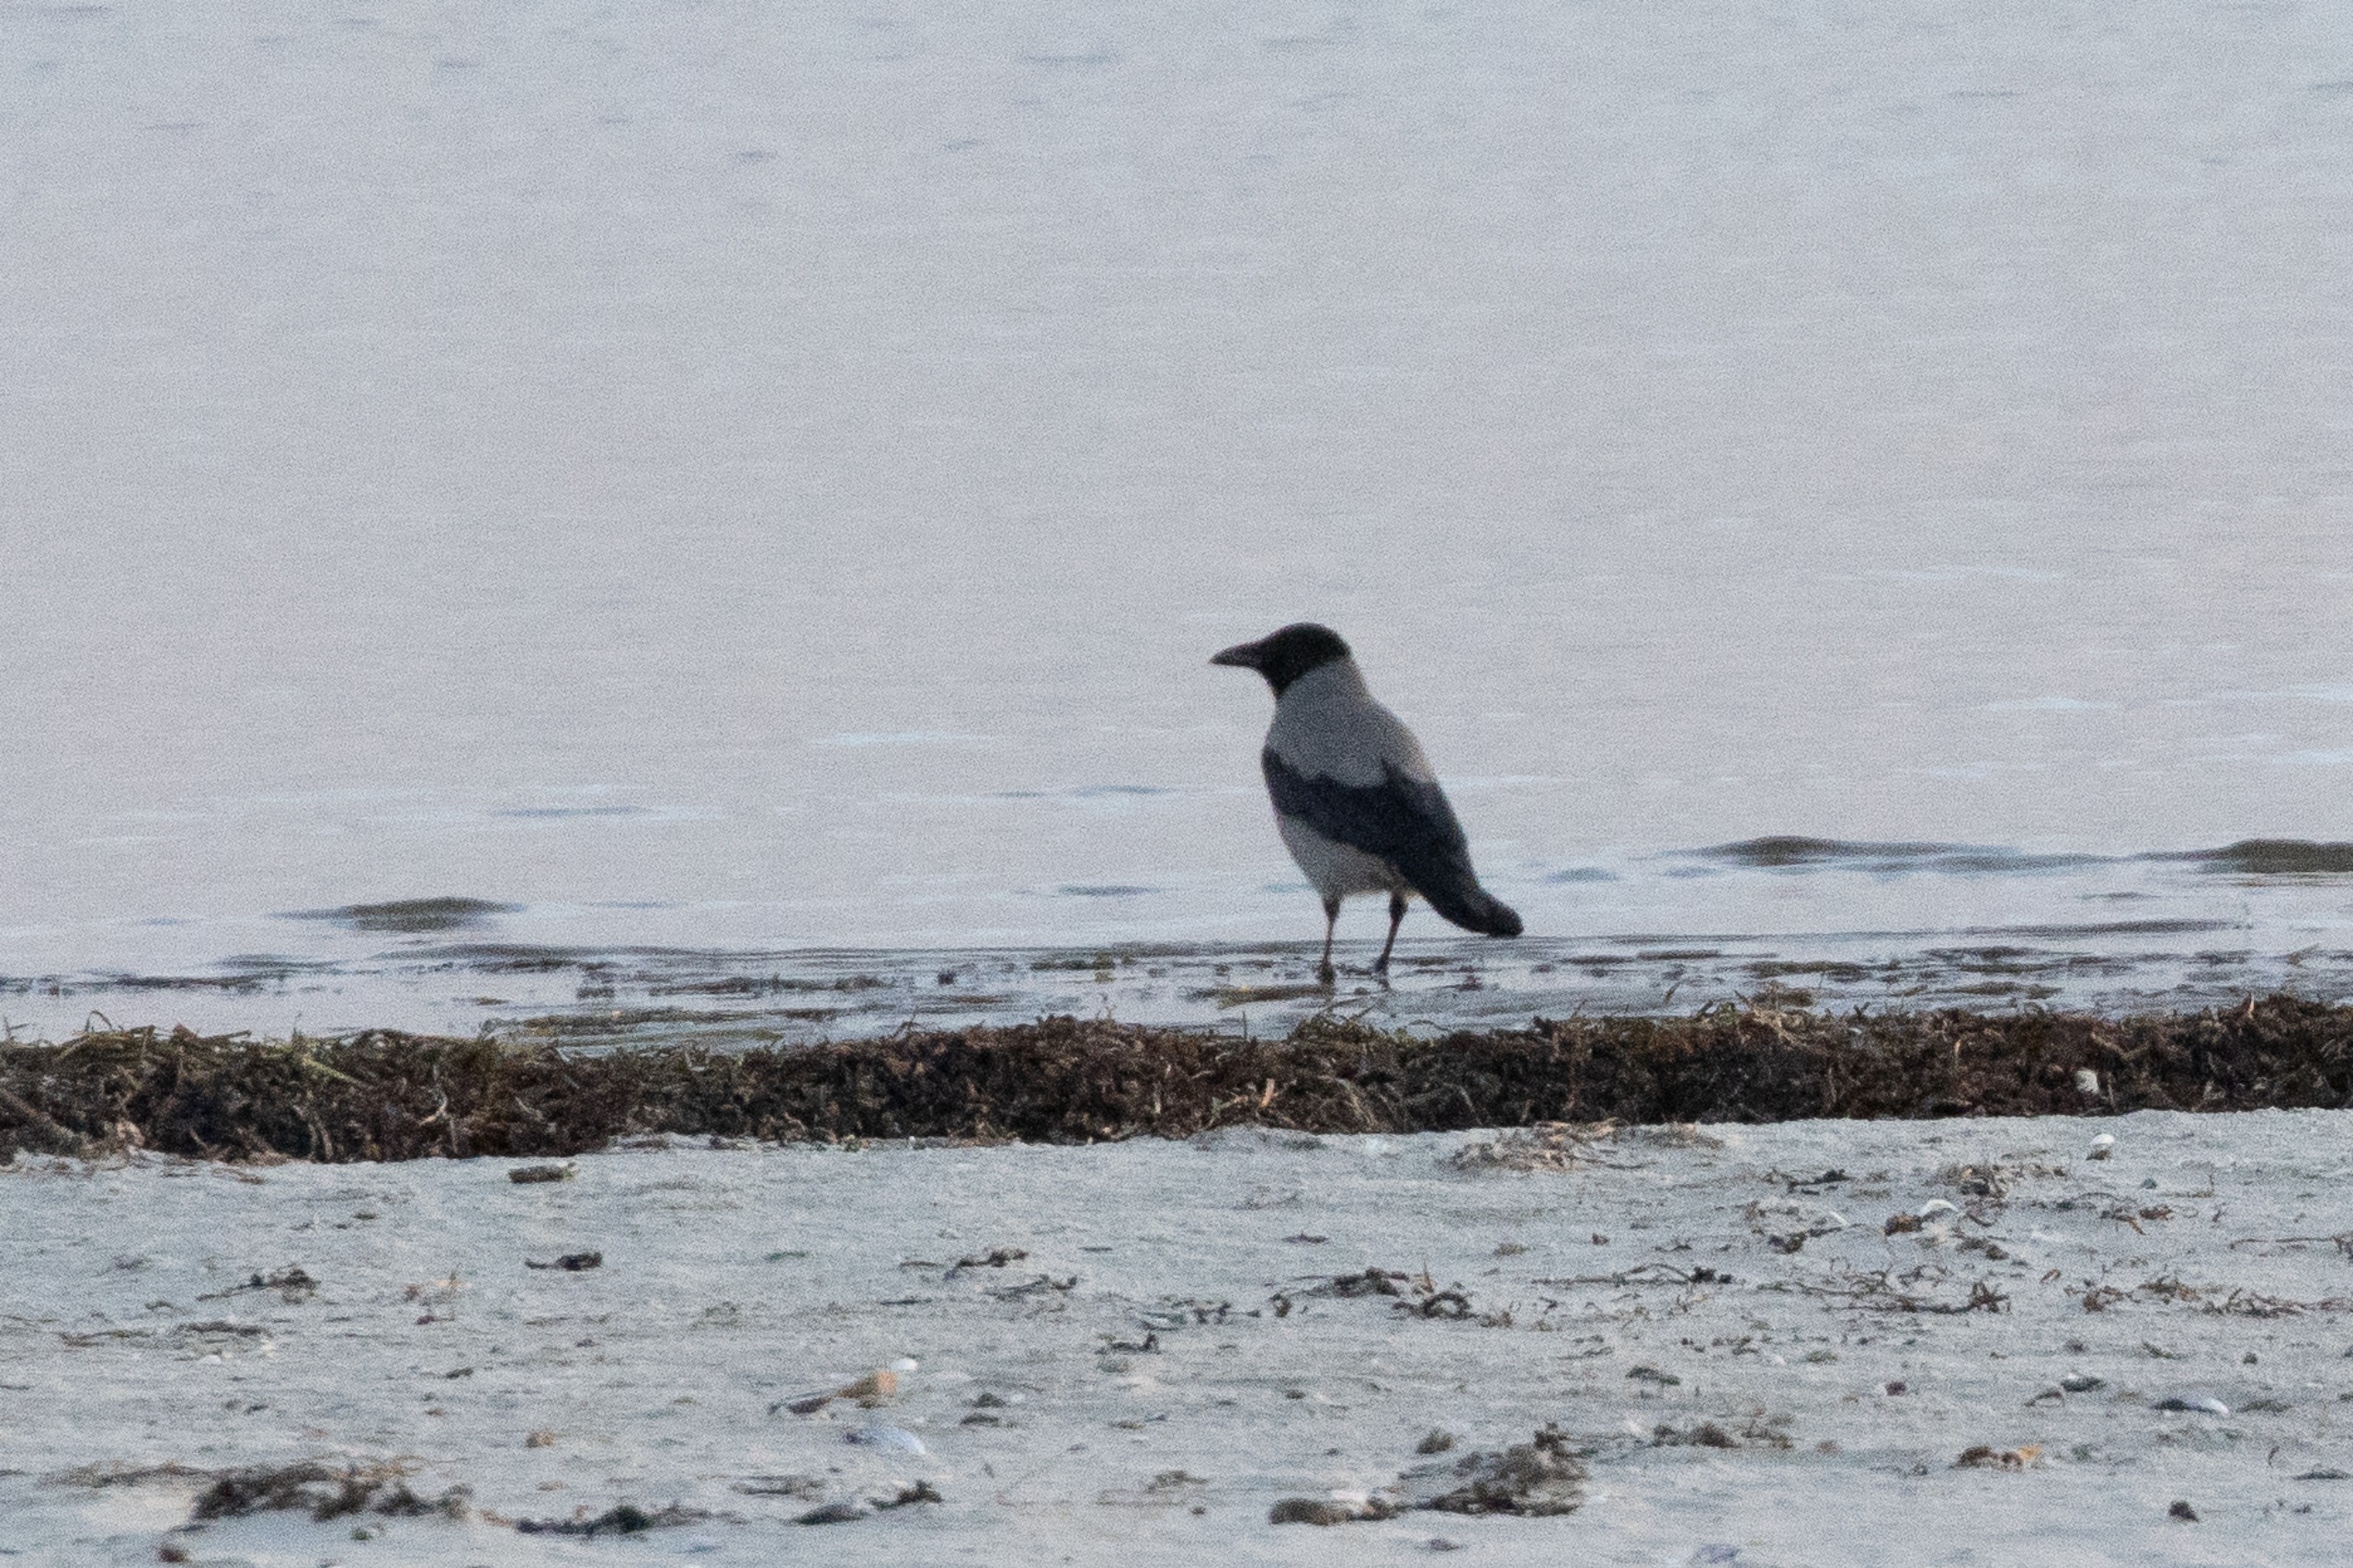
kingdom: Animalia
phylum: Chordata
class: Aves
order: Passeriformes
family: Corvidae
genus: Corvus
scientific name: Corvus cornix
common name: Gråkrage
